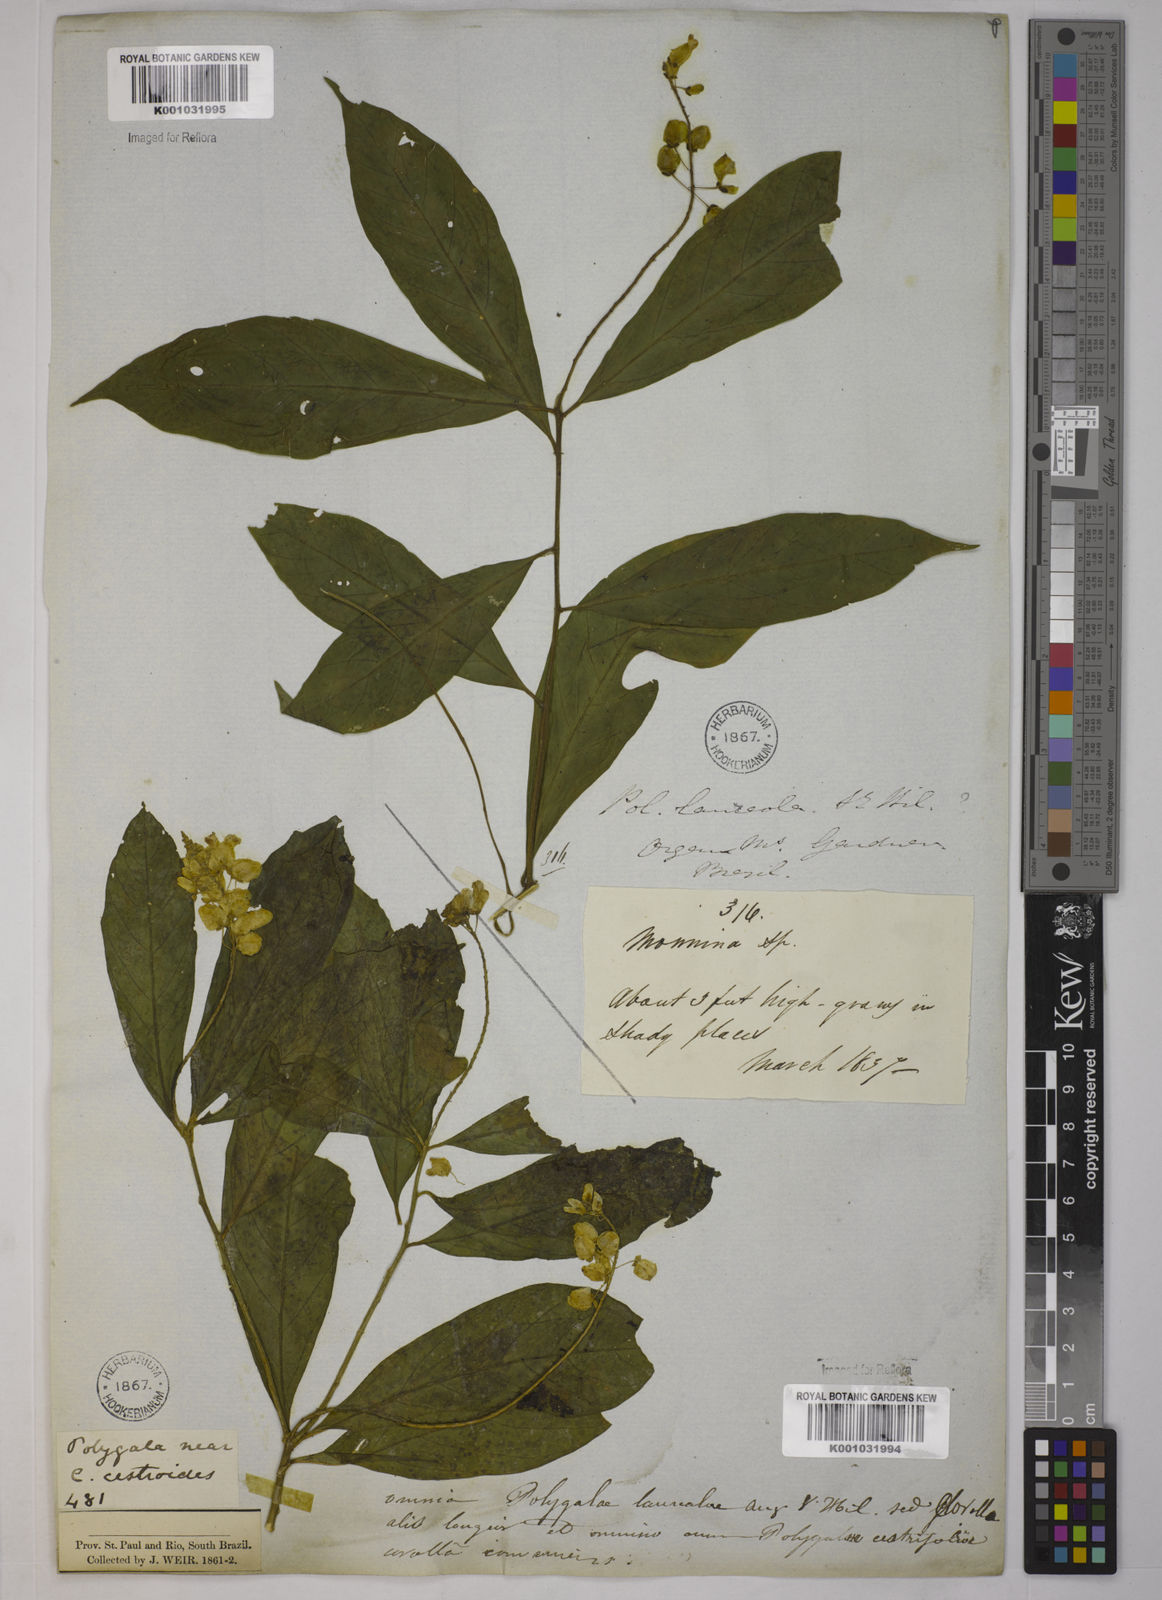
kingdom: Plantae
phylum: Tracheophyta
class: Magnoliopsida
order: Fabales
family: Polygalaceae
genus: Caamembeca
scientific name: Caamembeca salicifolia
